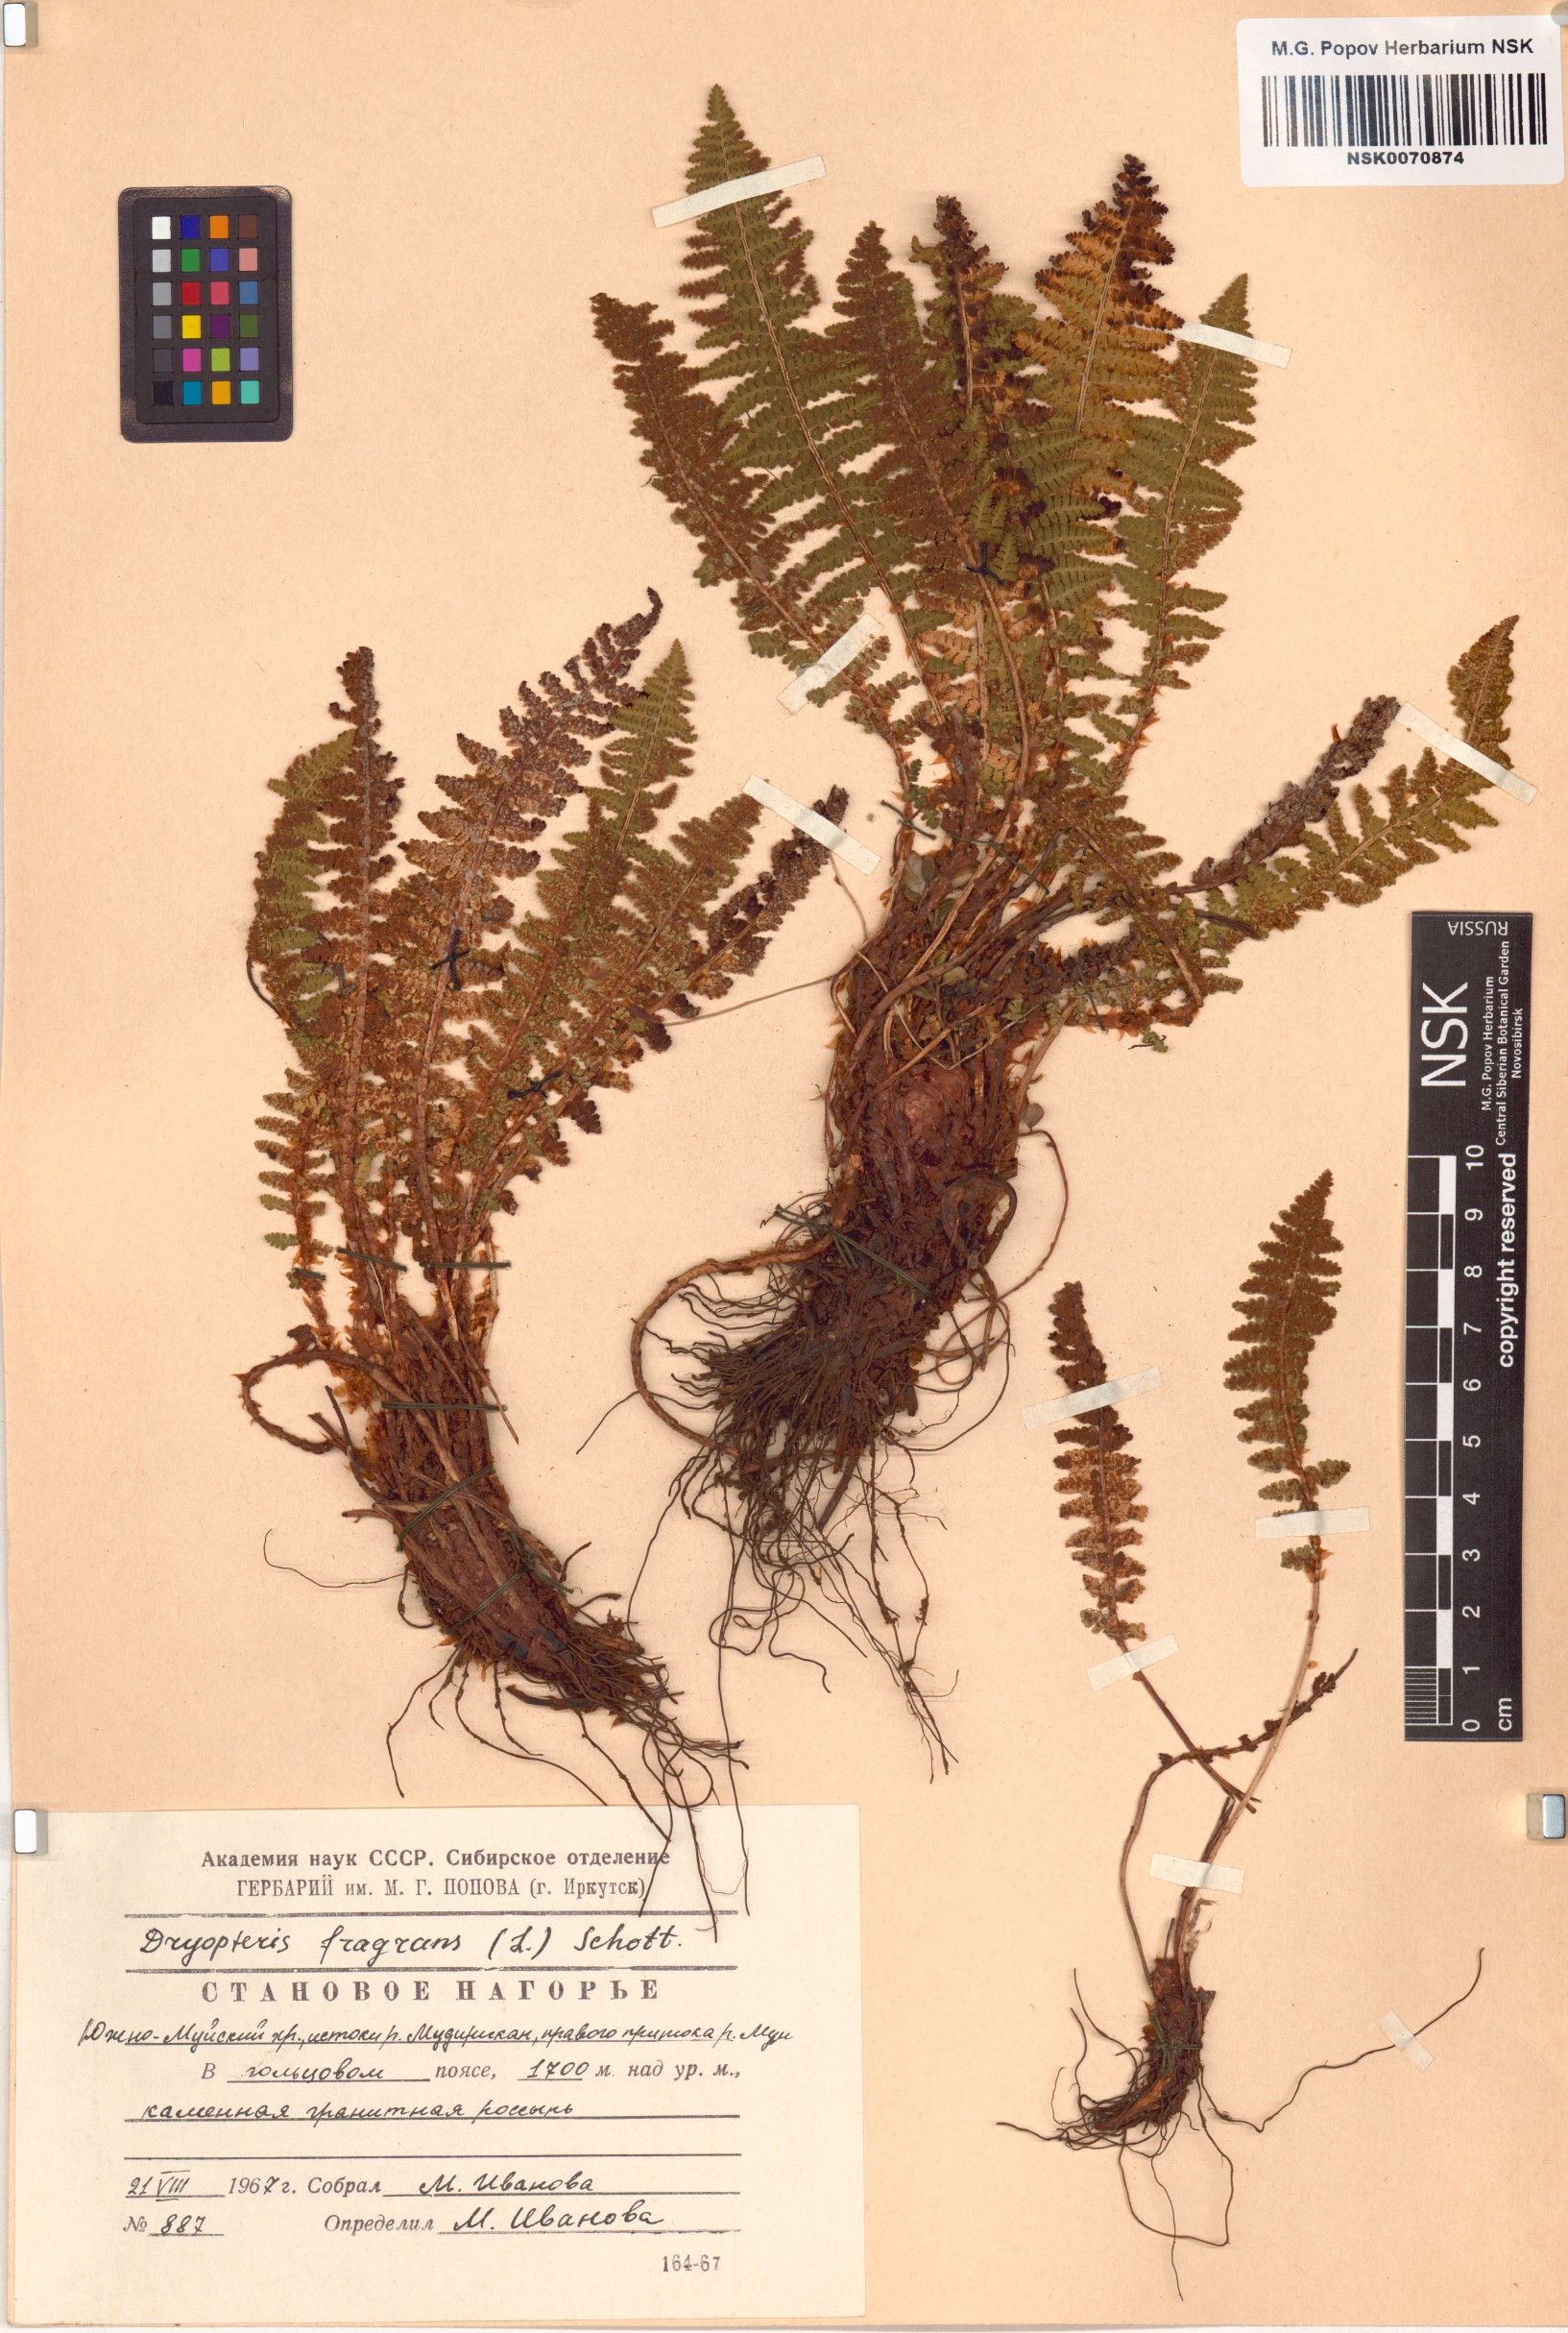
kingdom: Plantae
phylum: Tracheophyta
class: Polypodiopsida
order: Polypodiales
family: Dryopteridaceae
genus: Dryopteris
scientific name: Dryopteris fragrans
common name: Fragrant wood fern
